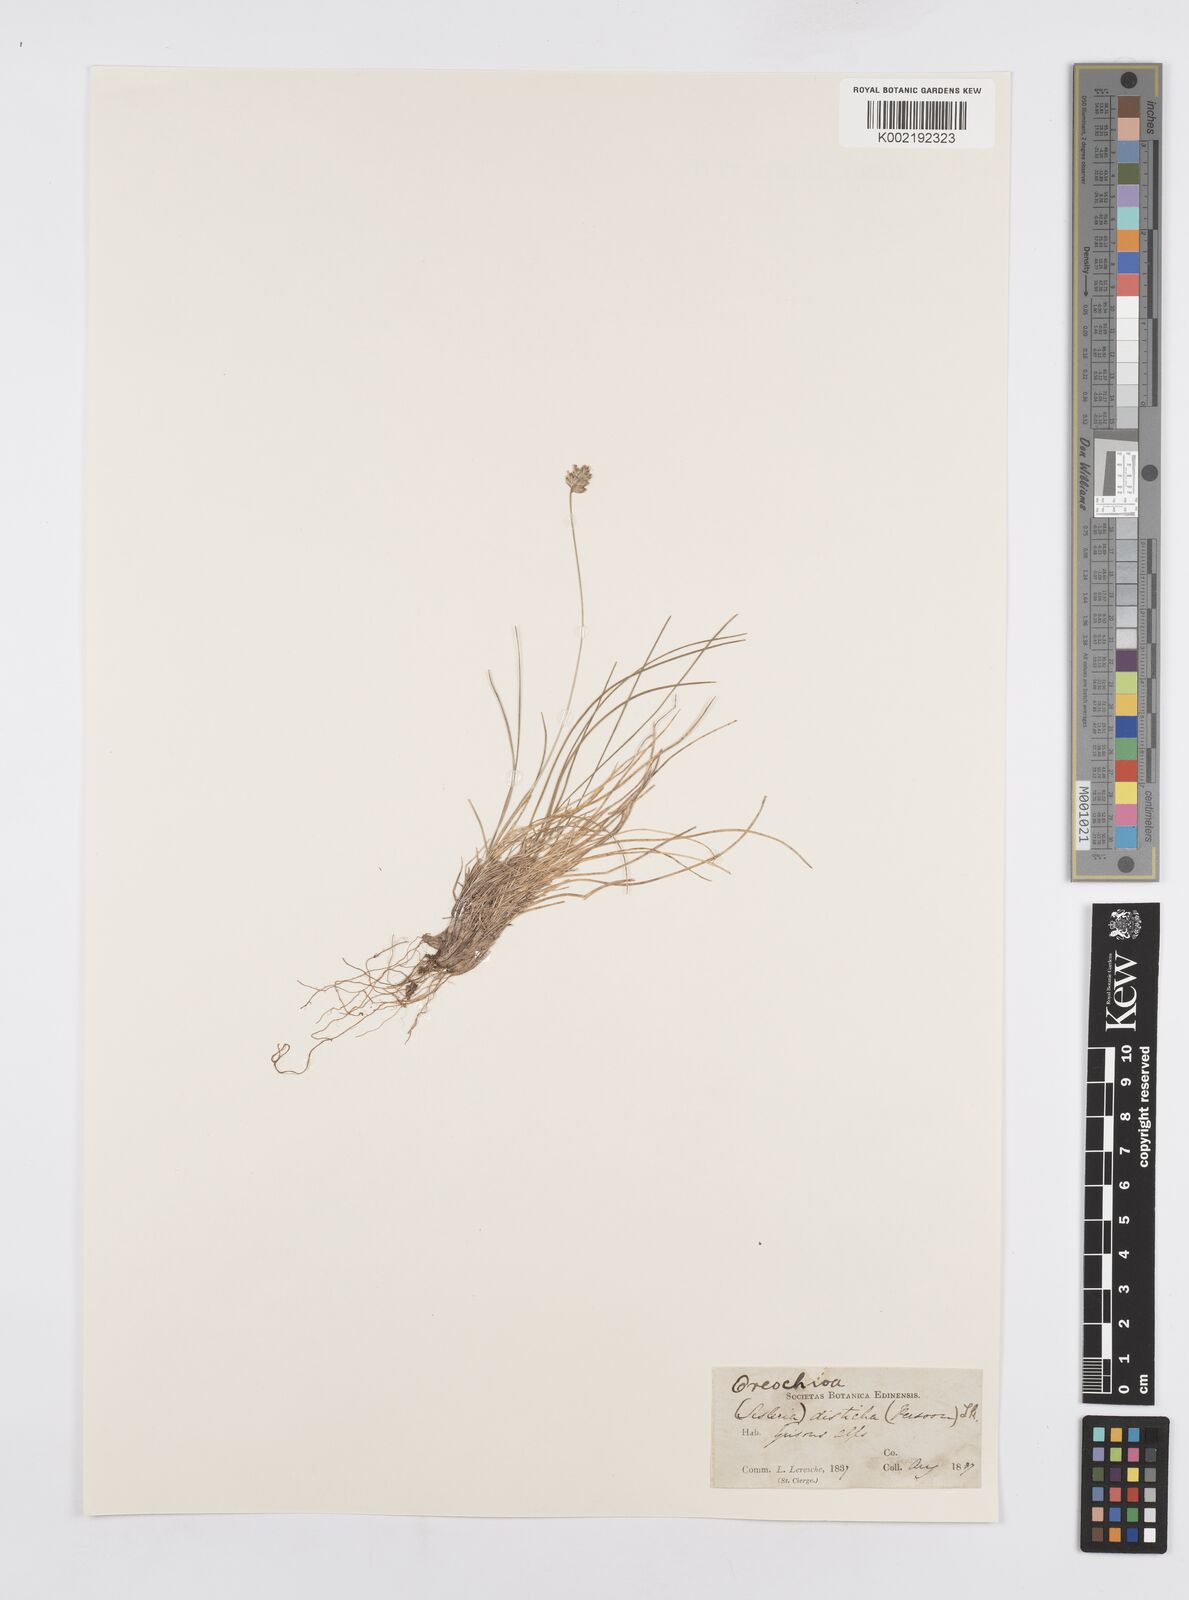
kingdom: Plantae
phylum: Tracheophyta
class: Liliopsida
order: Poales
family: Poaceae
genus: Oreochloa
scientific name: Oreochloa disticha
